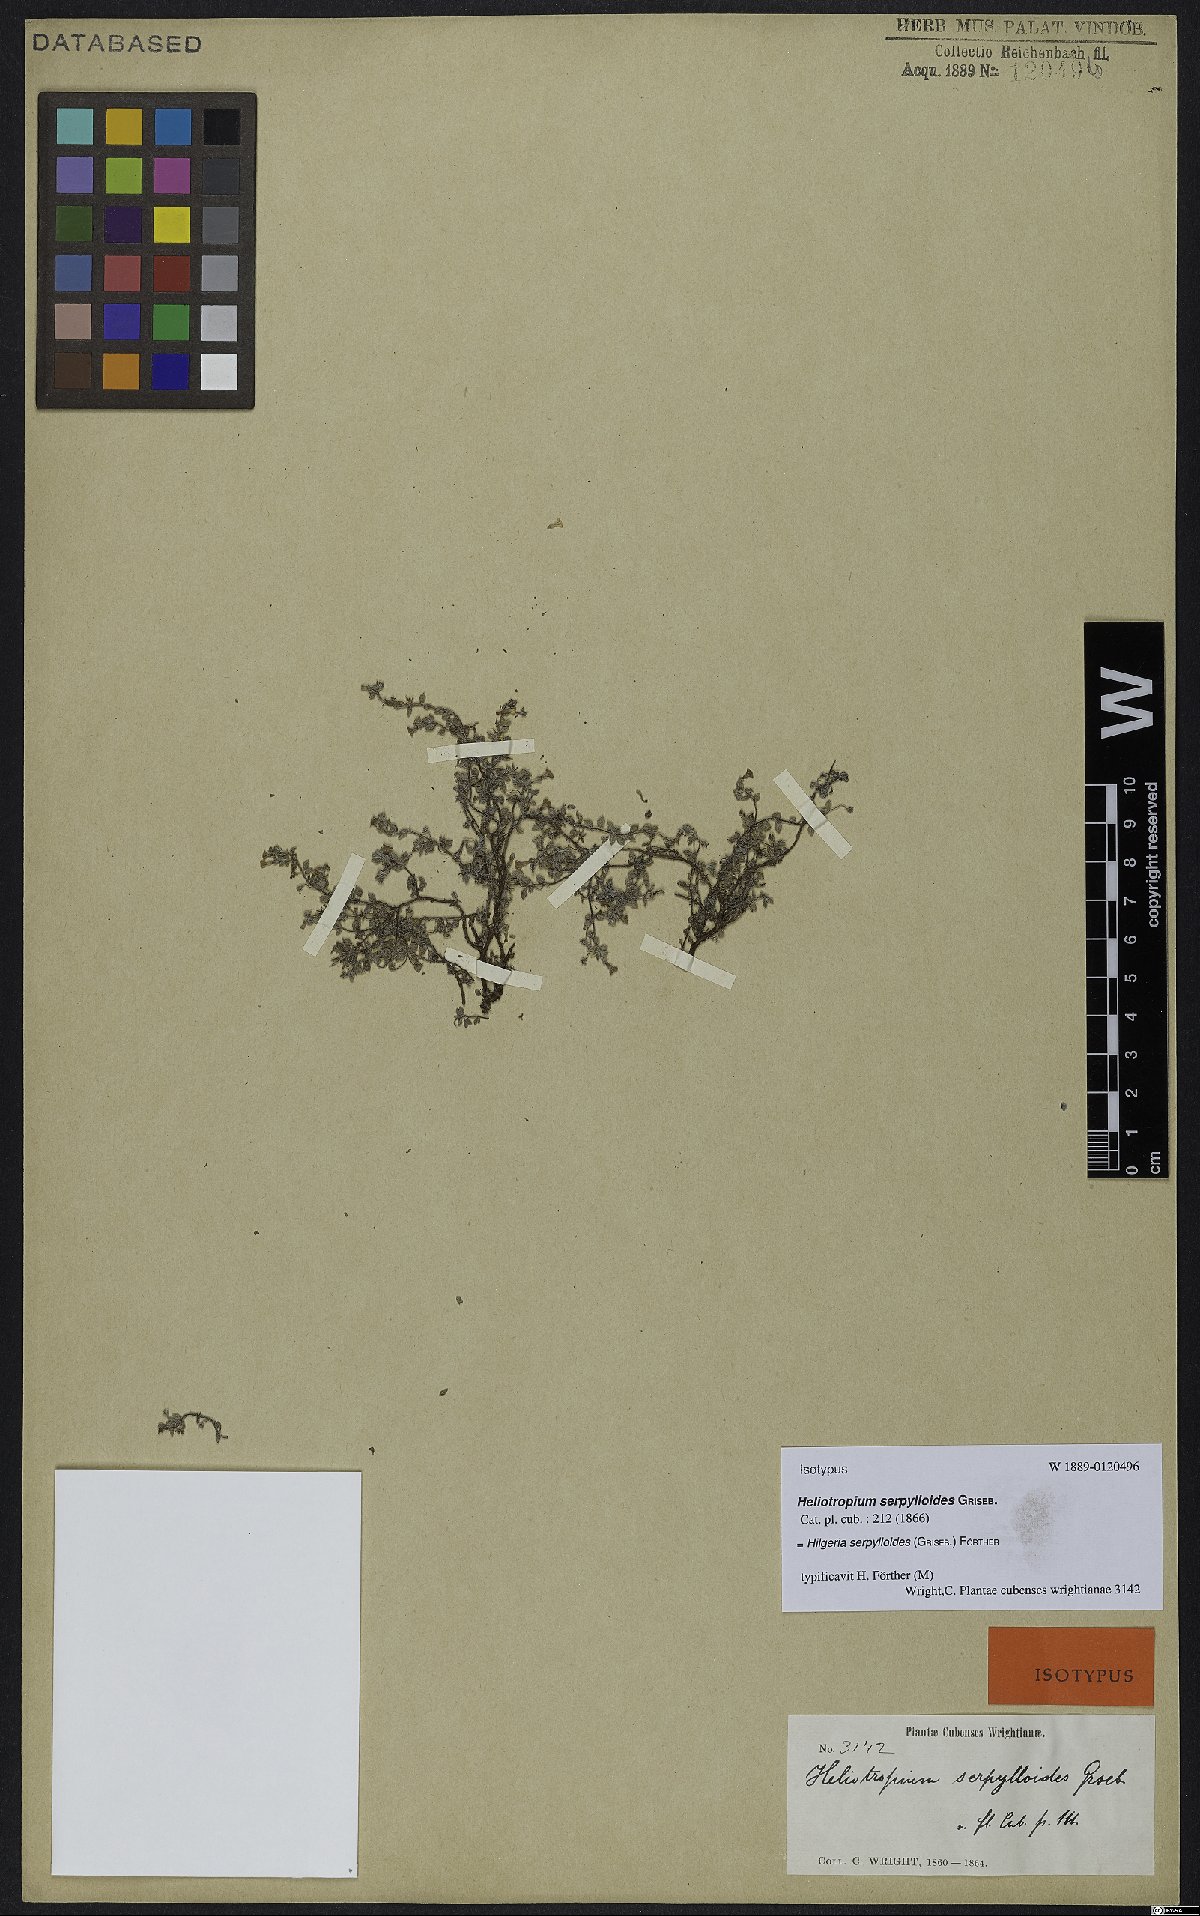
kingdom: Plantae
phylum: Tracheophyta
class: Magnoliopsida
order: Boraginales
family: Heliotropiaceae
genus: Euploca
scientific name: Euploca serpylloides
